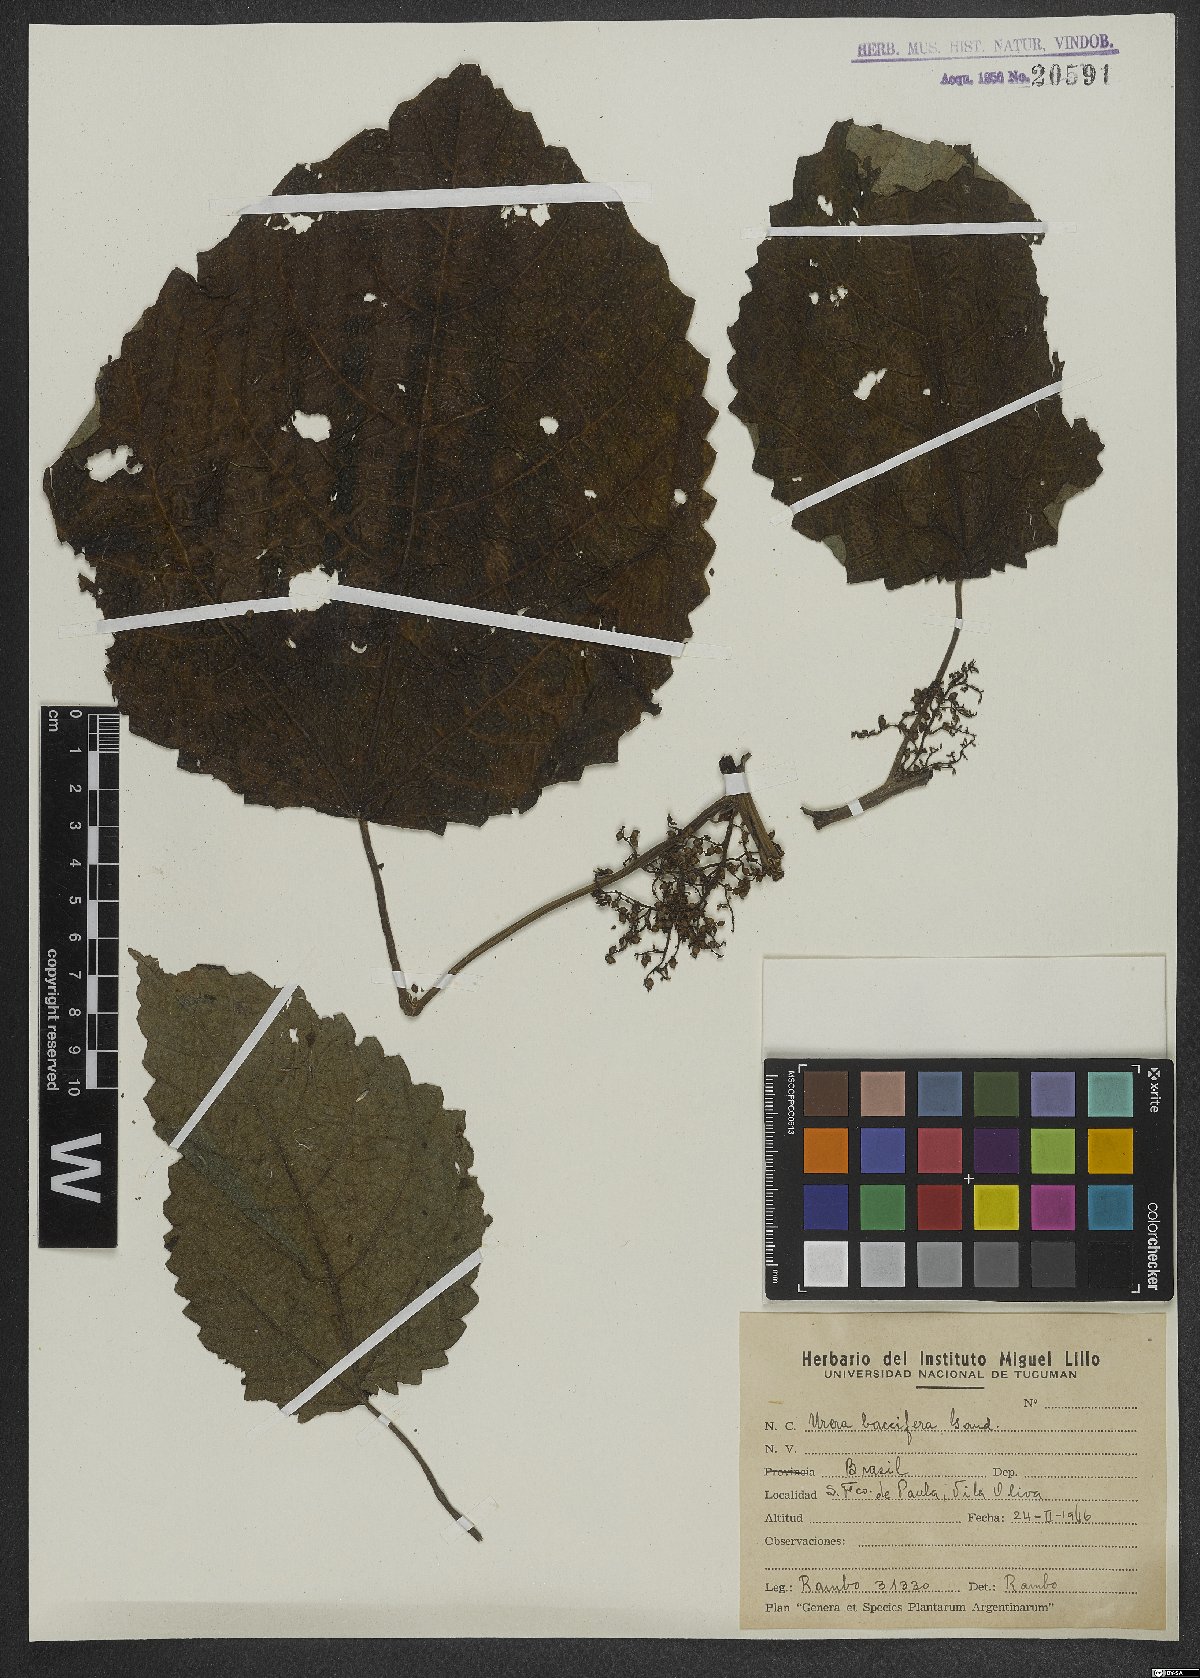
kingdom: Plantae
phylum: Tracheophyta
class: Magnoliopsida
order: Rosales
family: Urticaceae
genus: Urera
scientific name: Urera baccifera
